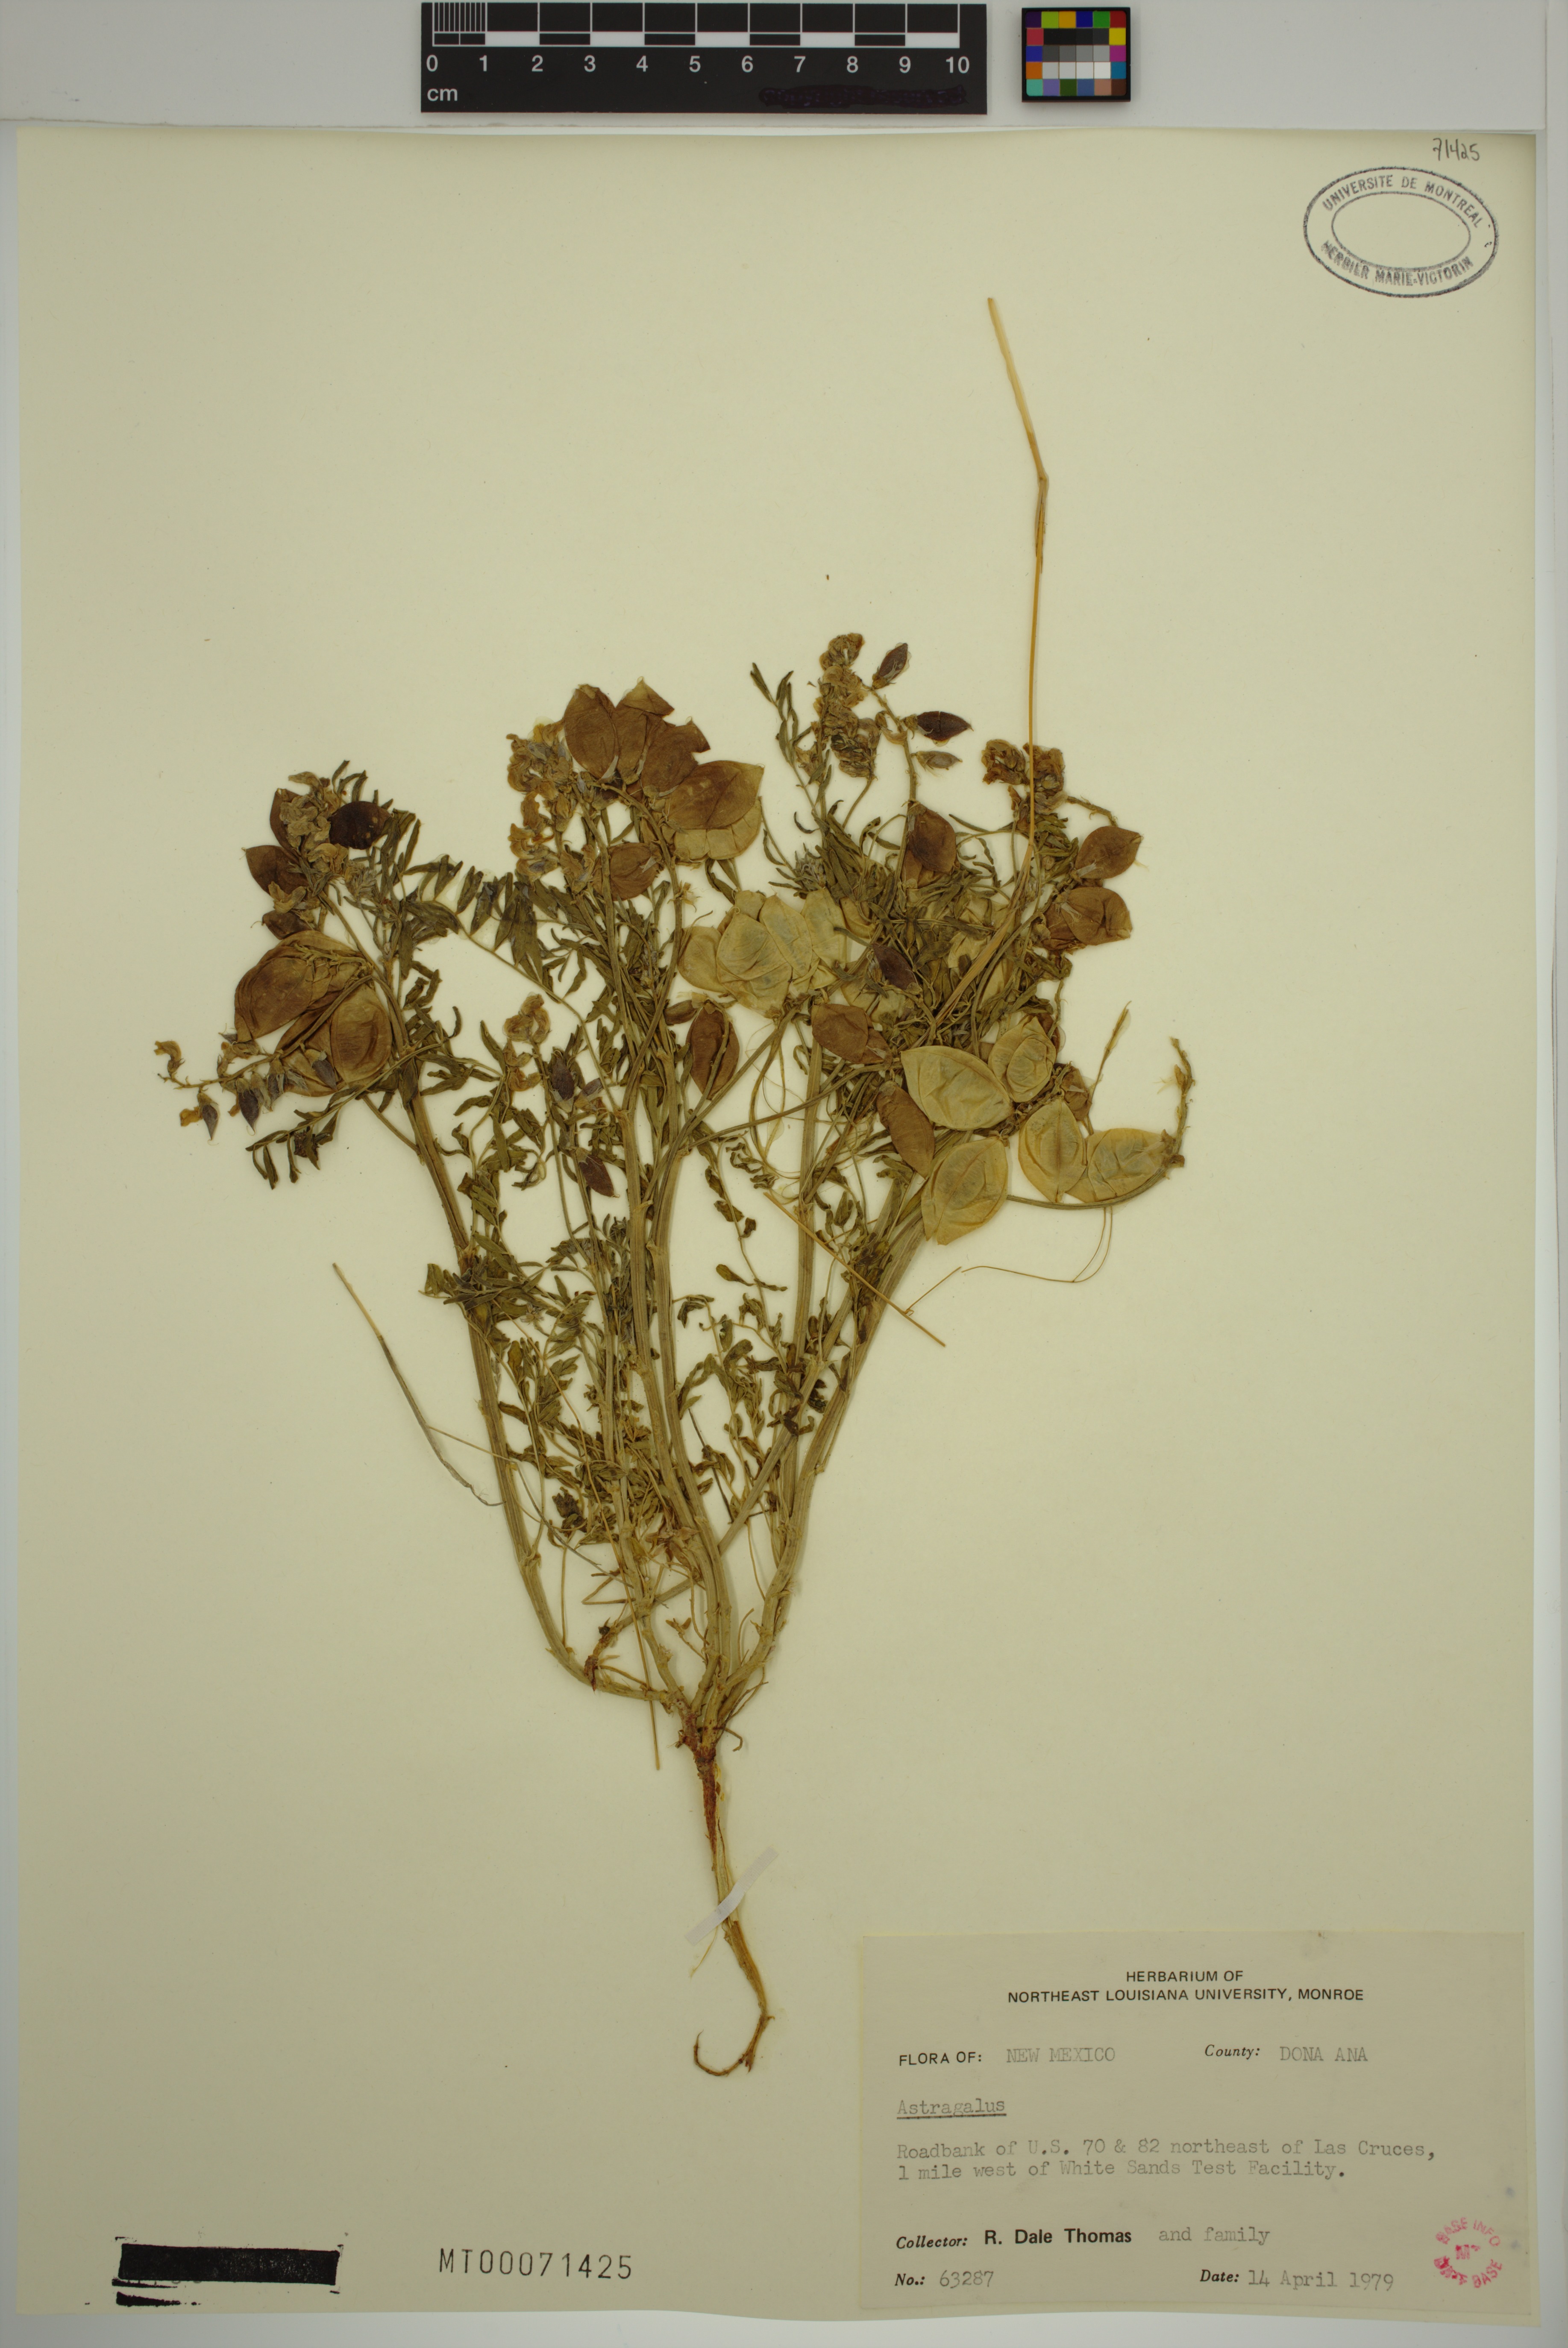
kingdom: Plantae
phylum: Tracheophyta
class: Magnoliopsida
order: Fabales
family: Fabaceae
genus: Astragalus
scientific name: Astragalus
